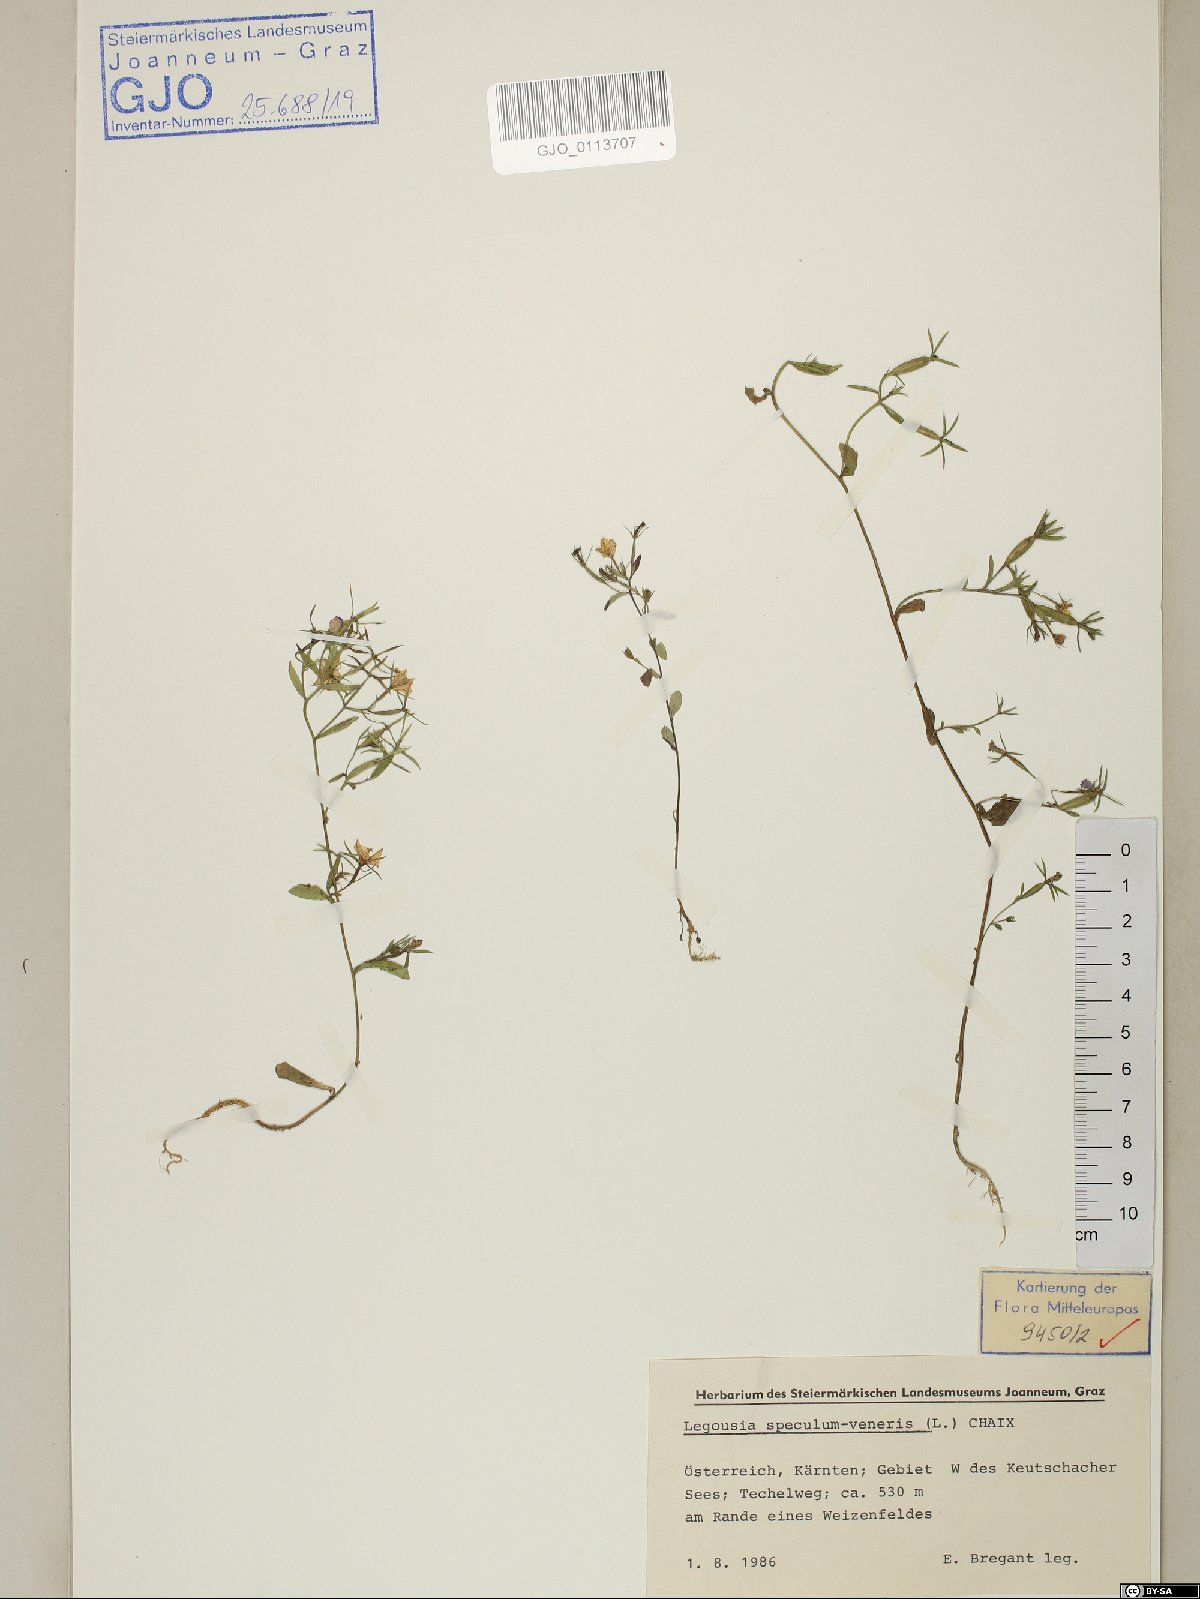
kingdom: Plantae
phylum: Tracheophyta
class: Magnoliopsida
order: Asterales
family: Campanulaceae
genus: Legousia
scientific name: Legousia speculum-veneris
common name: Large venus's-looking-glass
